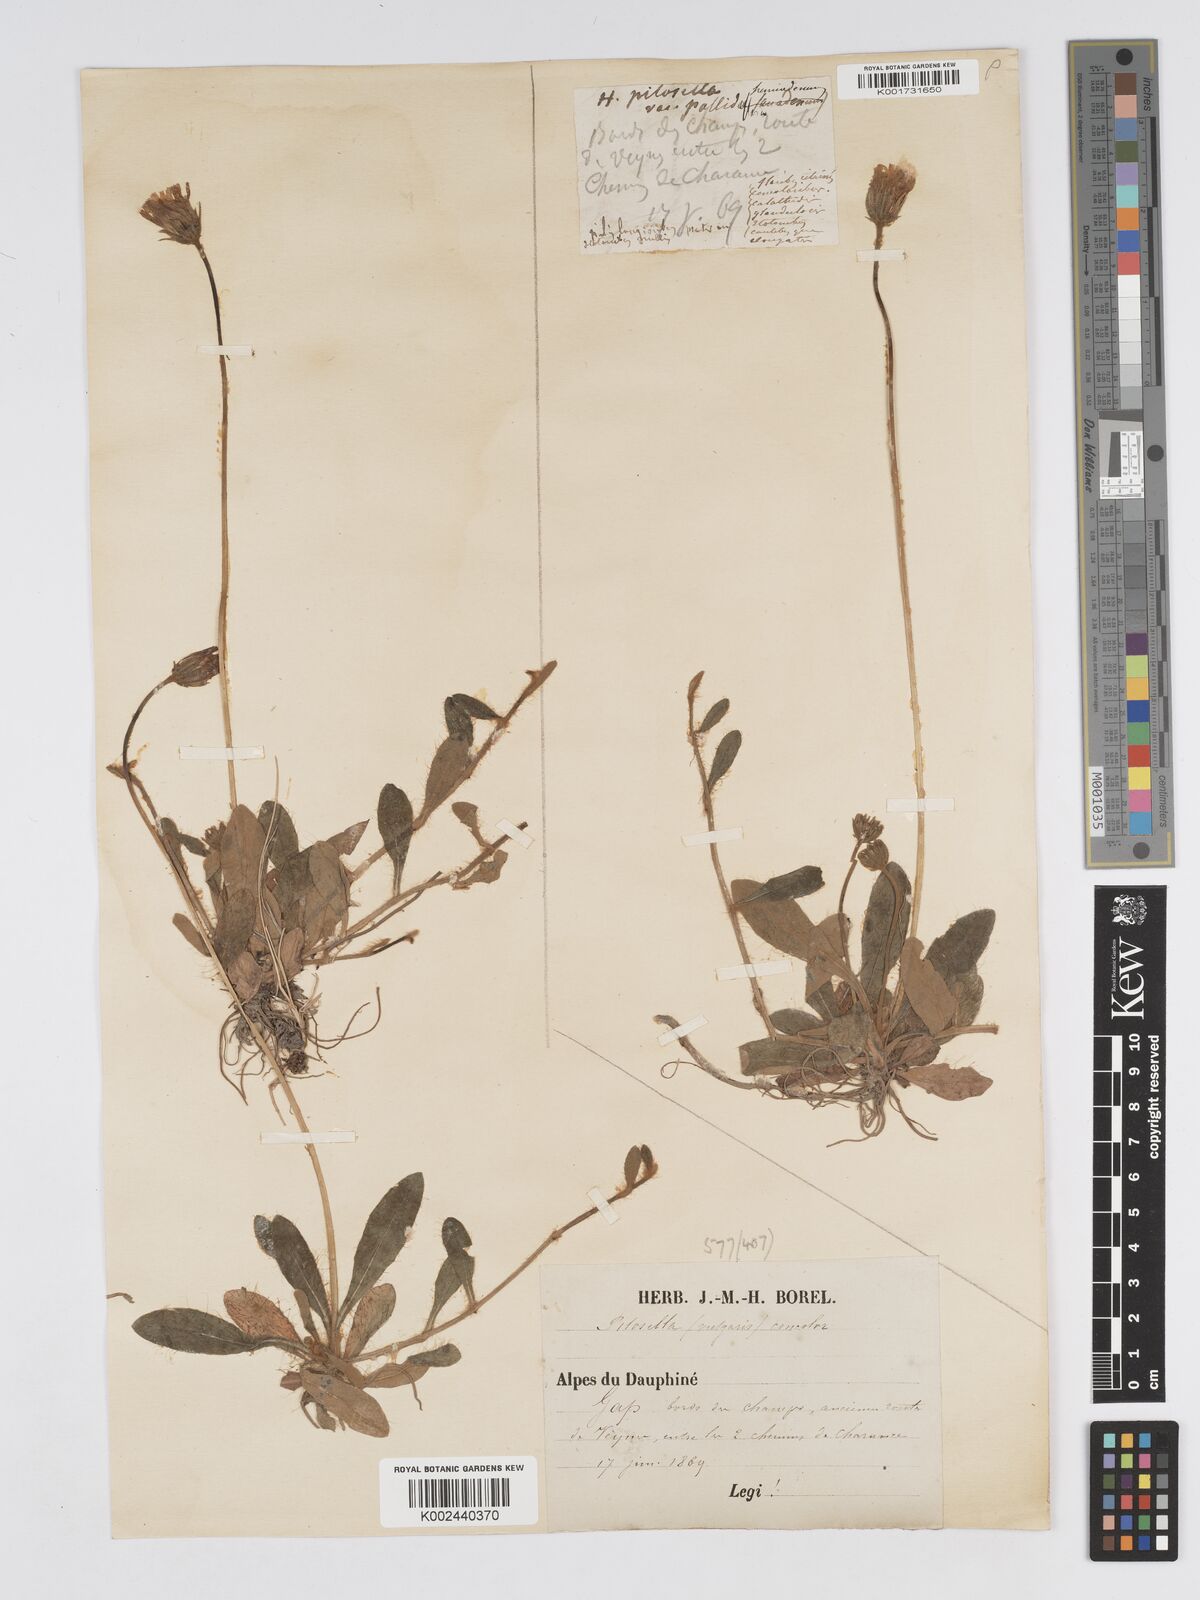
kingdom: Plantae
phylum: Tracheophyta
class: Magnoliopsida
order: Asterales
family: Asteraceae
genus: Pilosella
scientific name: Pilosella officinarum
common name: Mouse-ear hawkweed
